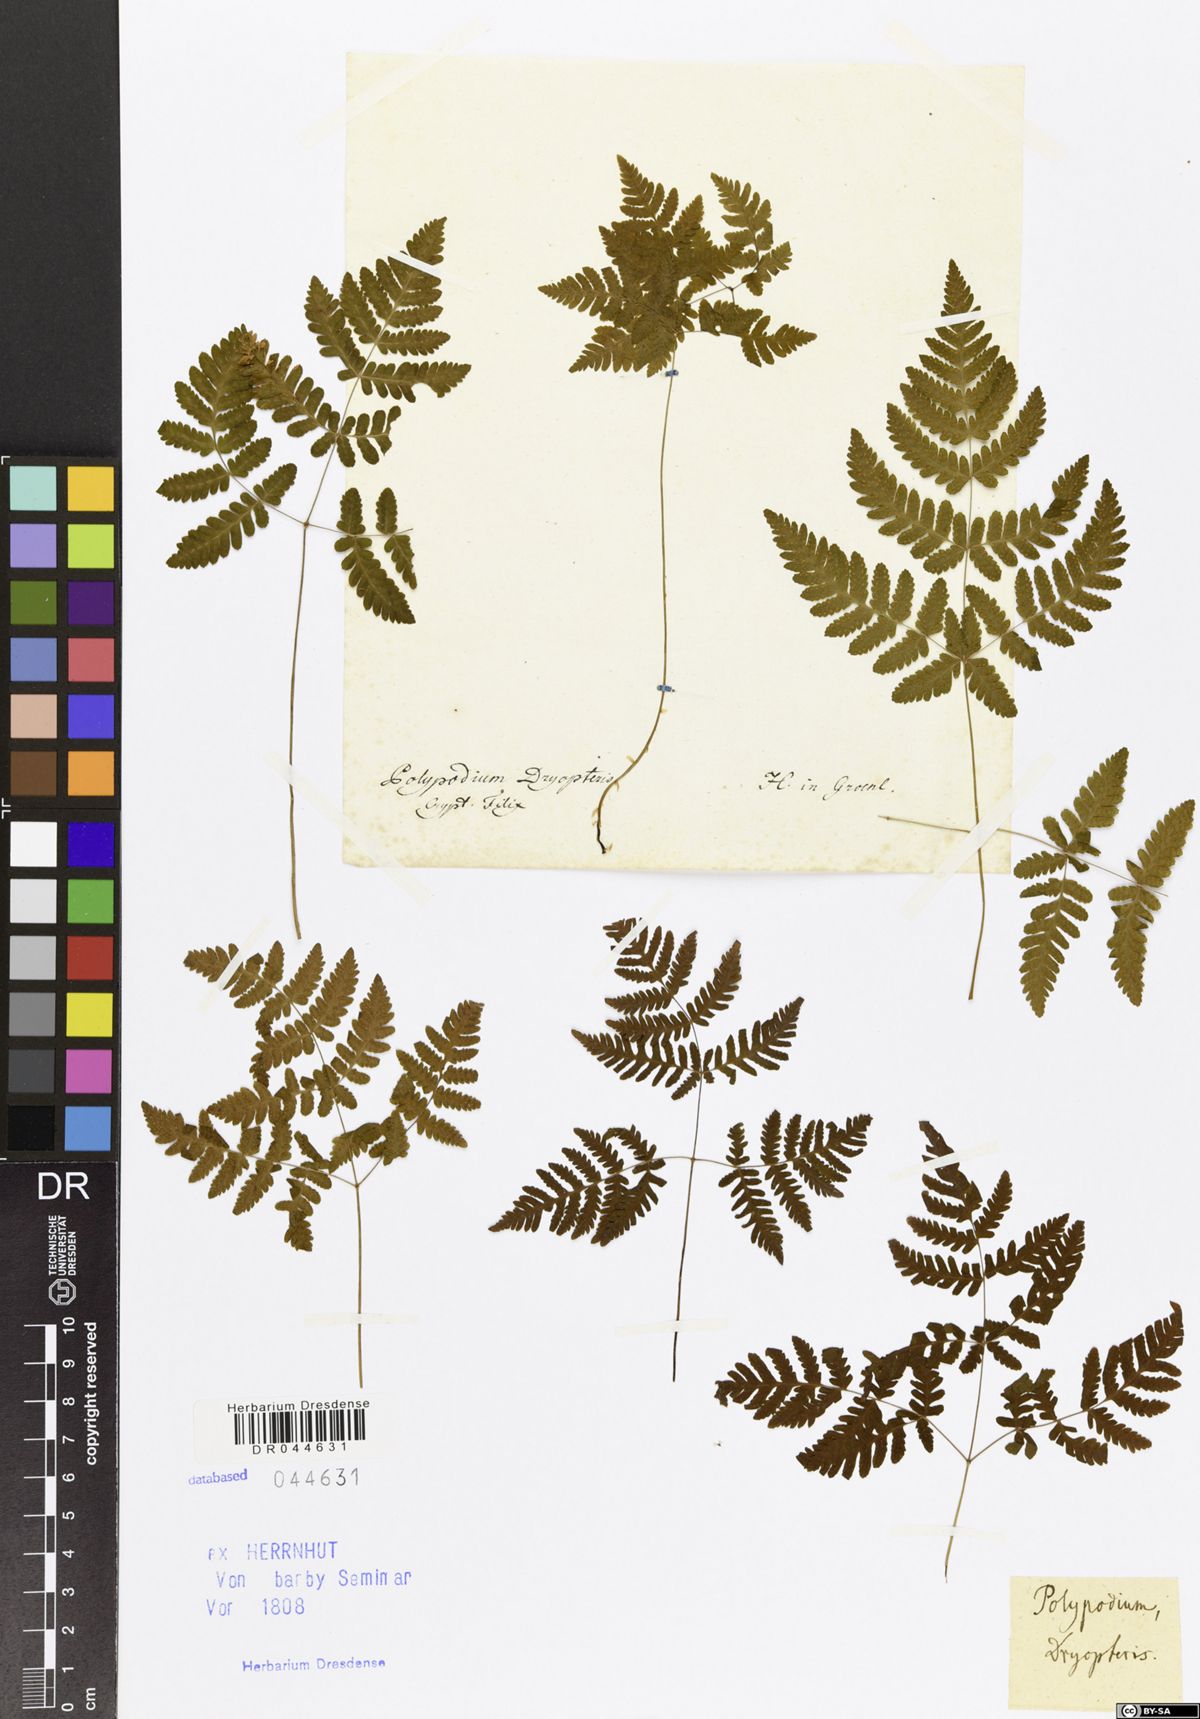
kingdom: Plantae
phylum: Tracheophyta
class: Polypodiopsida
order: Polypodiales
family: Cystopteridaceae
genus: Gymnocarpium
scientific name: Gymnocarpium dryopteris
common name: Oak fern
